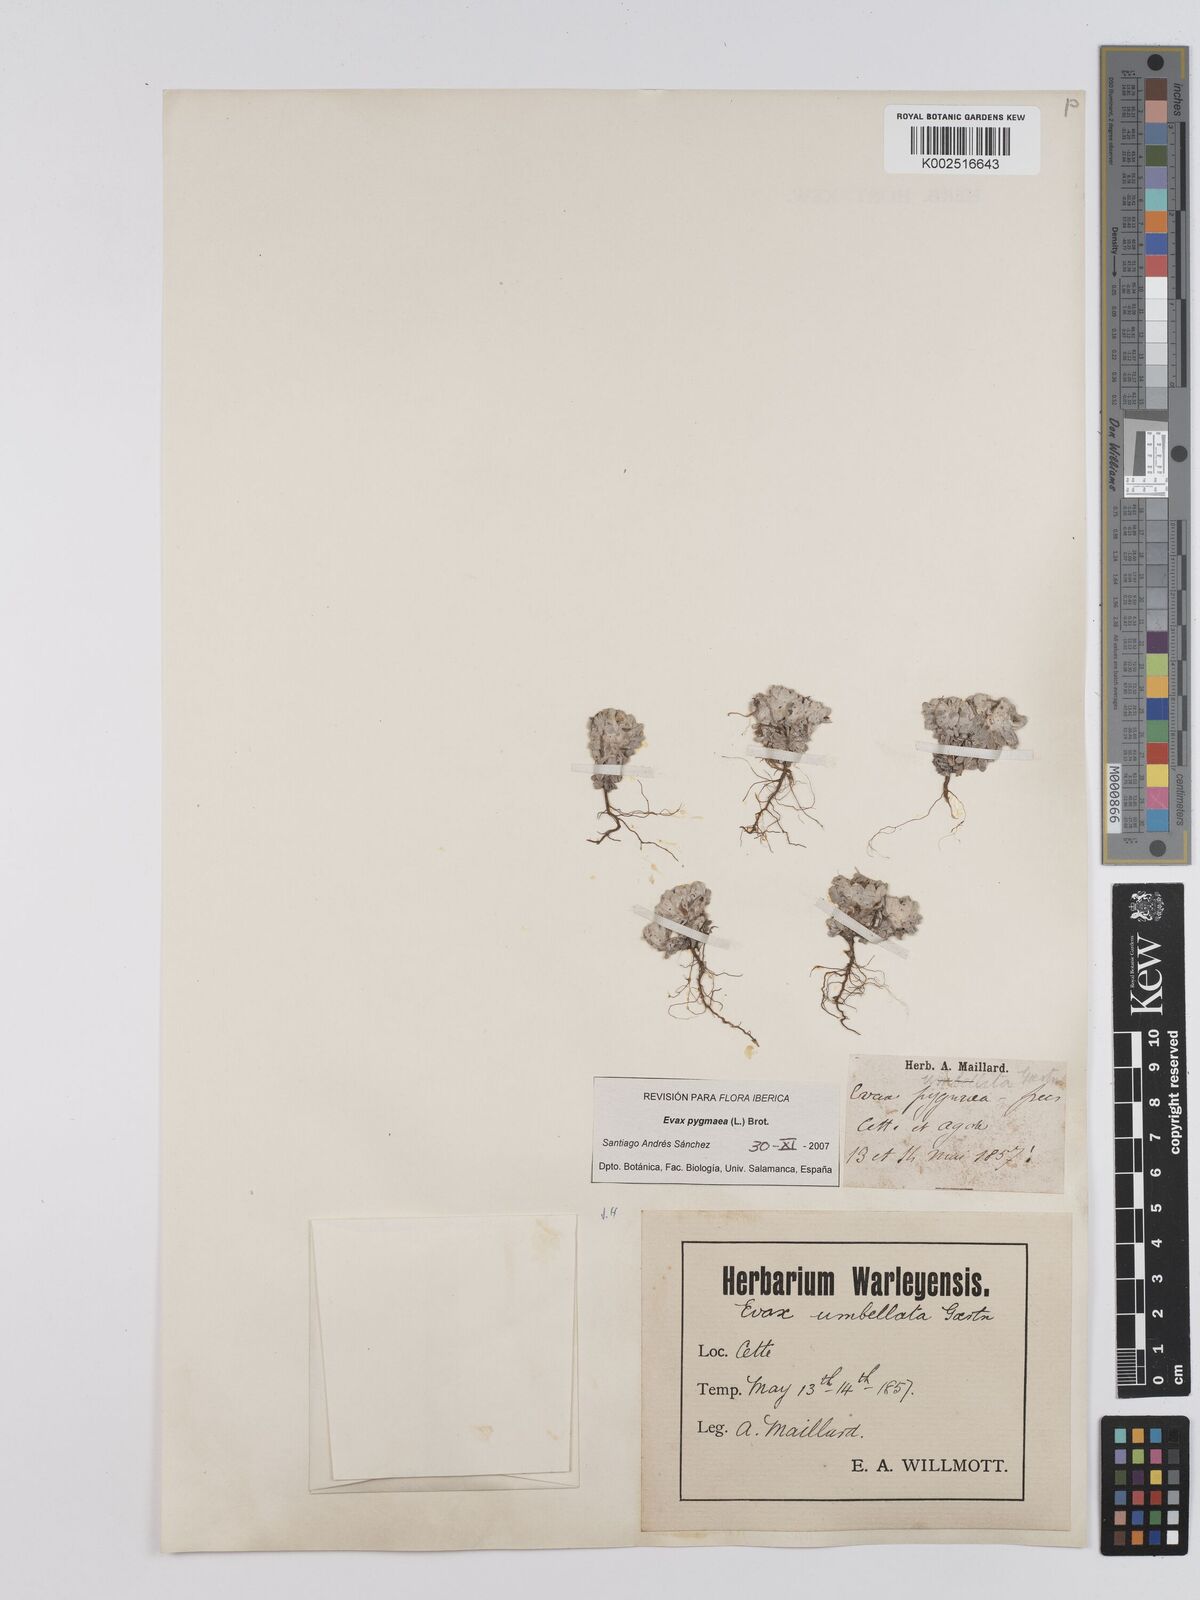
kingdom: Plantae
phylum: Tracheophyta
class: Magnoliopsida
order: Asterales
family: Asteraceae
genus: Filago
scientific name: Filago pygmaea
